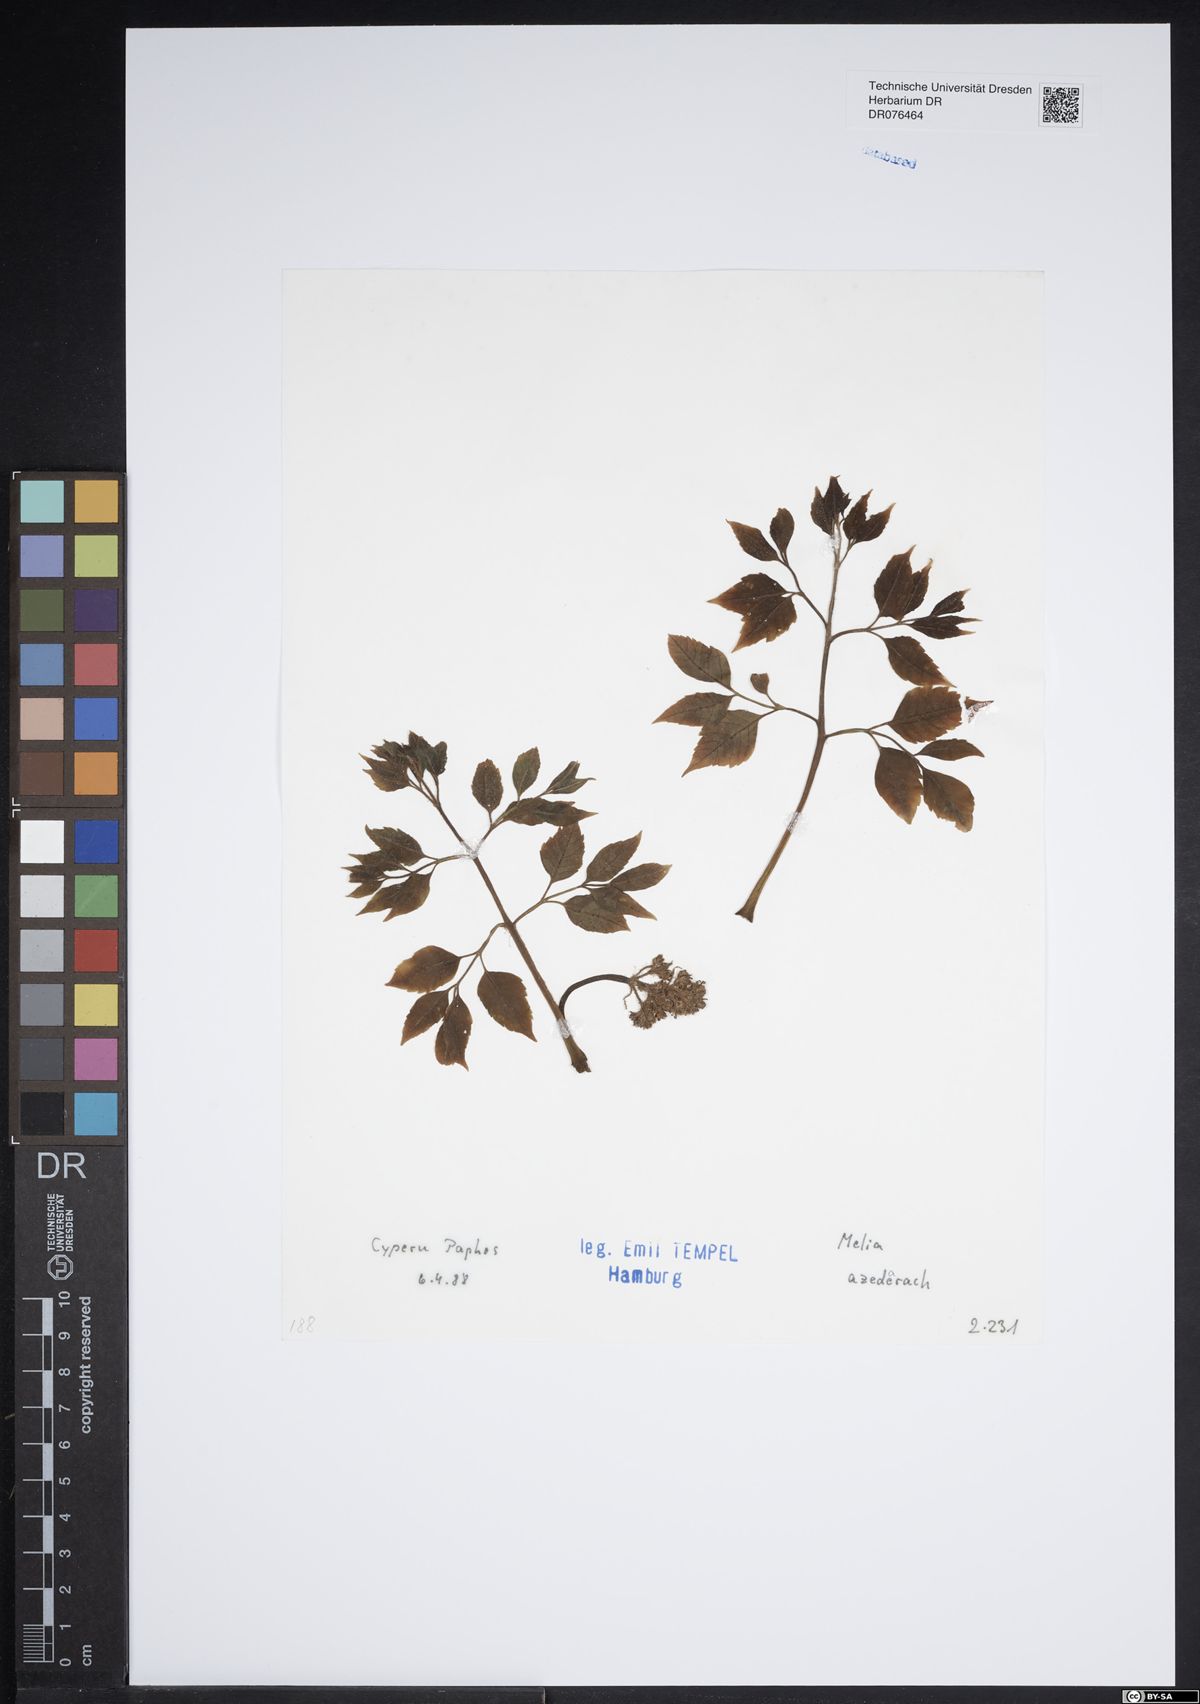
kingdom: Plantae
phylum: Tracheophyta
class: Magnoliopsida
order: Sapindales
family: Meliaceae
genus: Melia
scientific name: Melia azedarach
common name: Chinaberrytree
